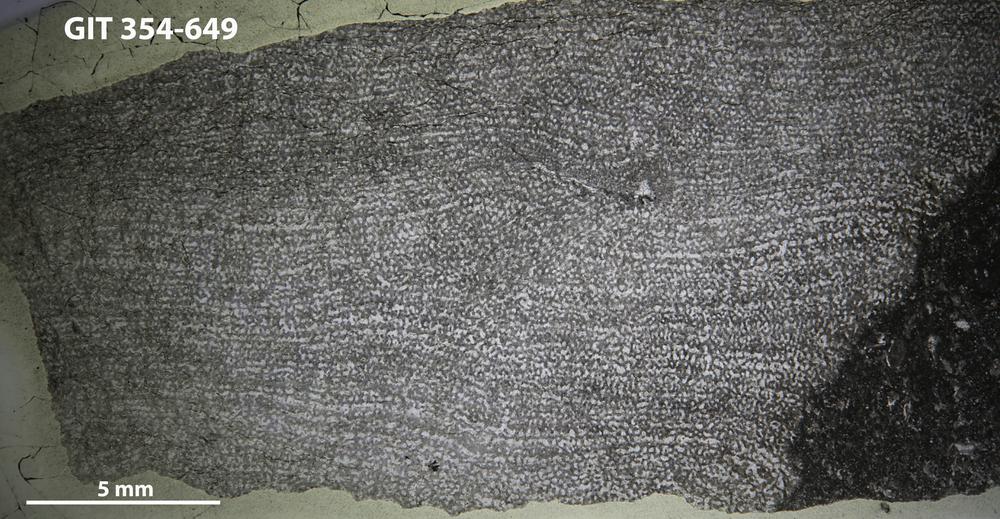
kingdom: Animalia
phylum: Porifera
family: Ecclimadictyidae
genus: Ecclimadictyon
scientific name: Ecclimadictyon macrotuberculatum
